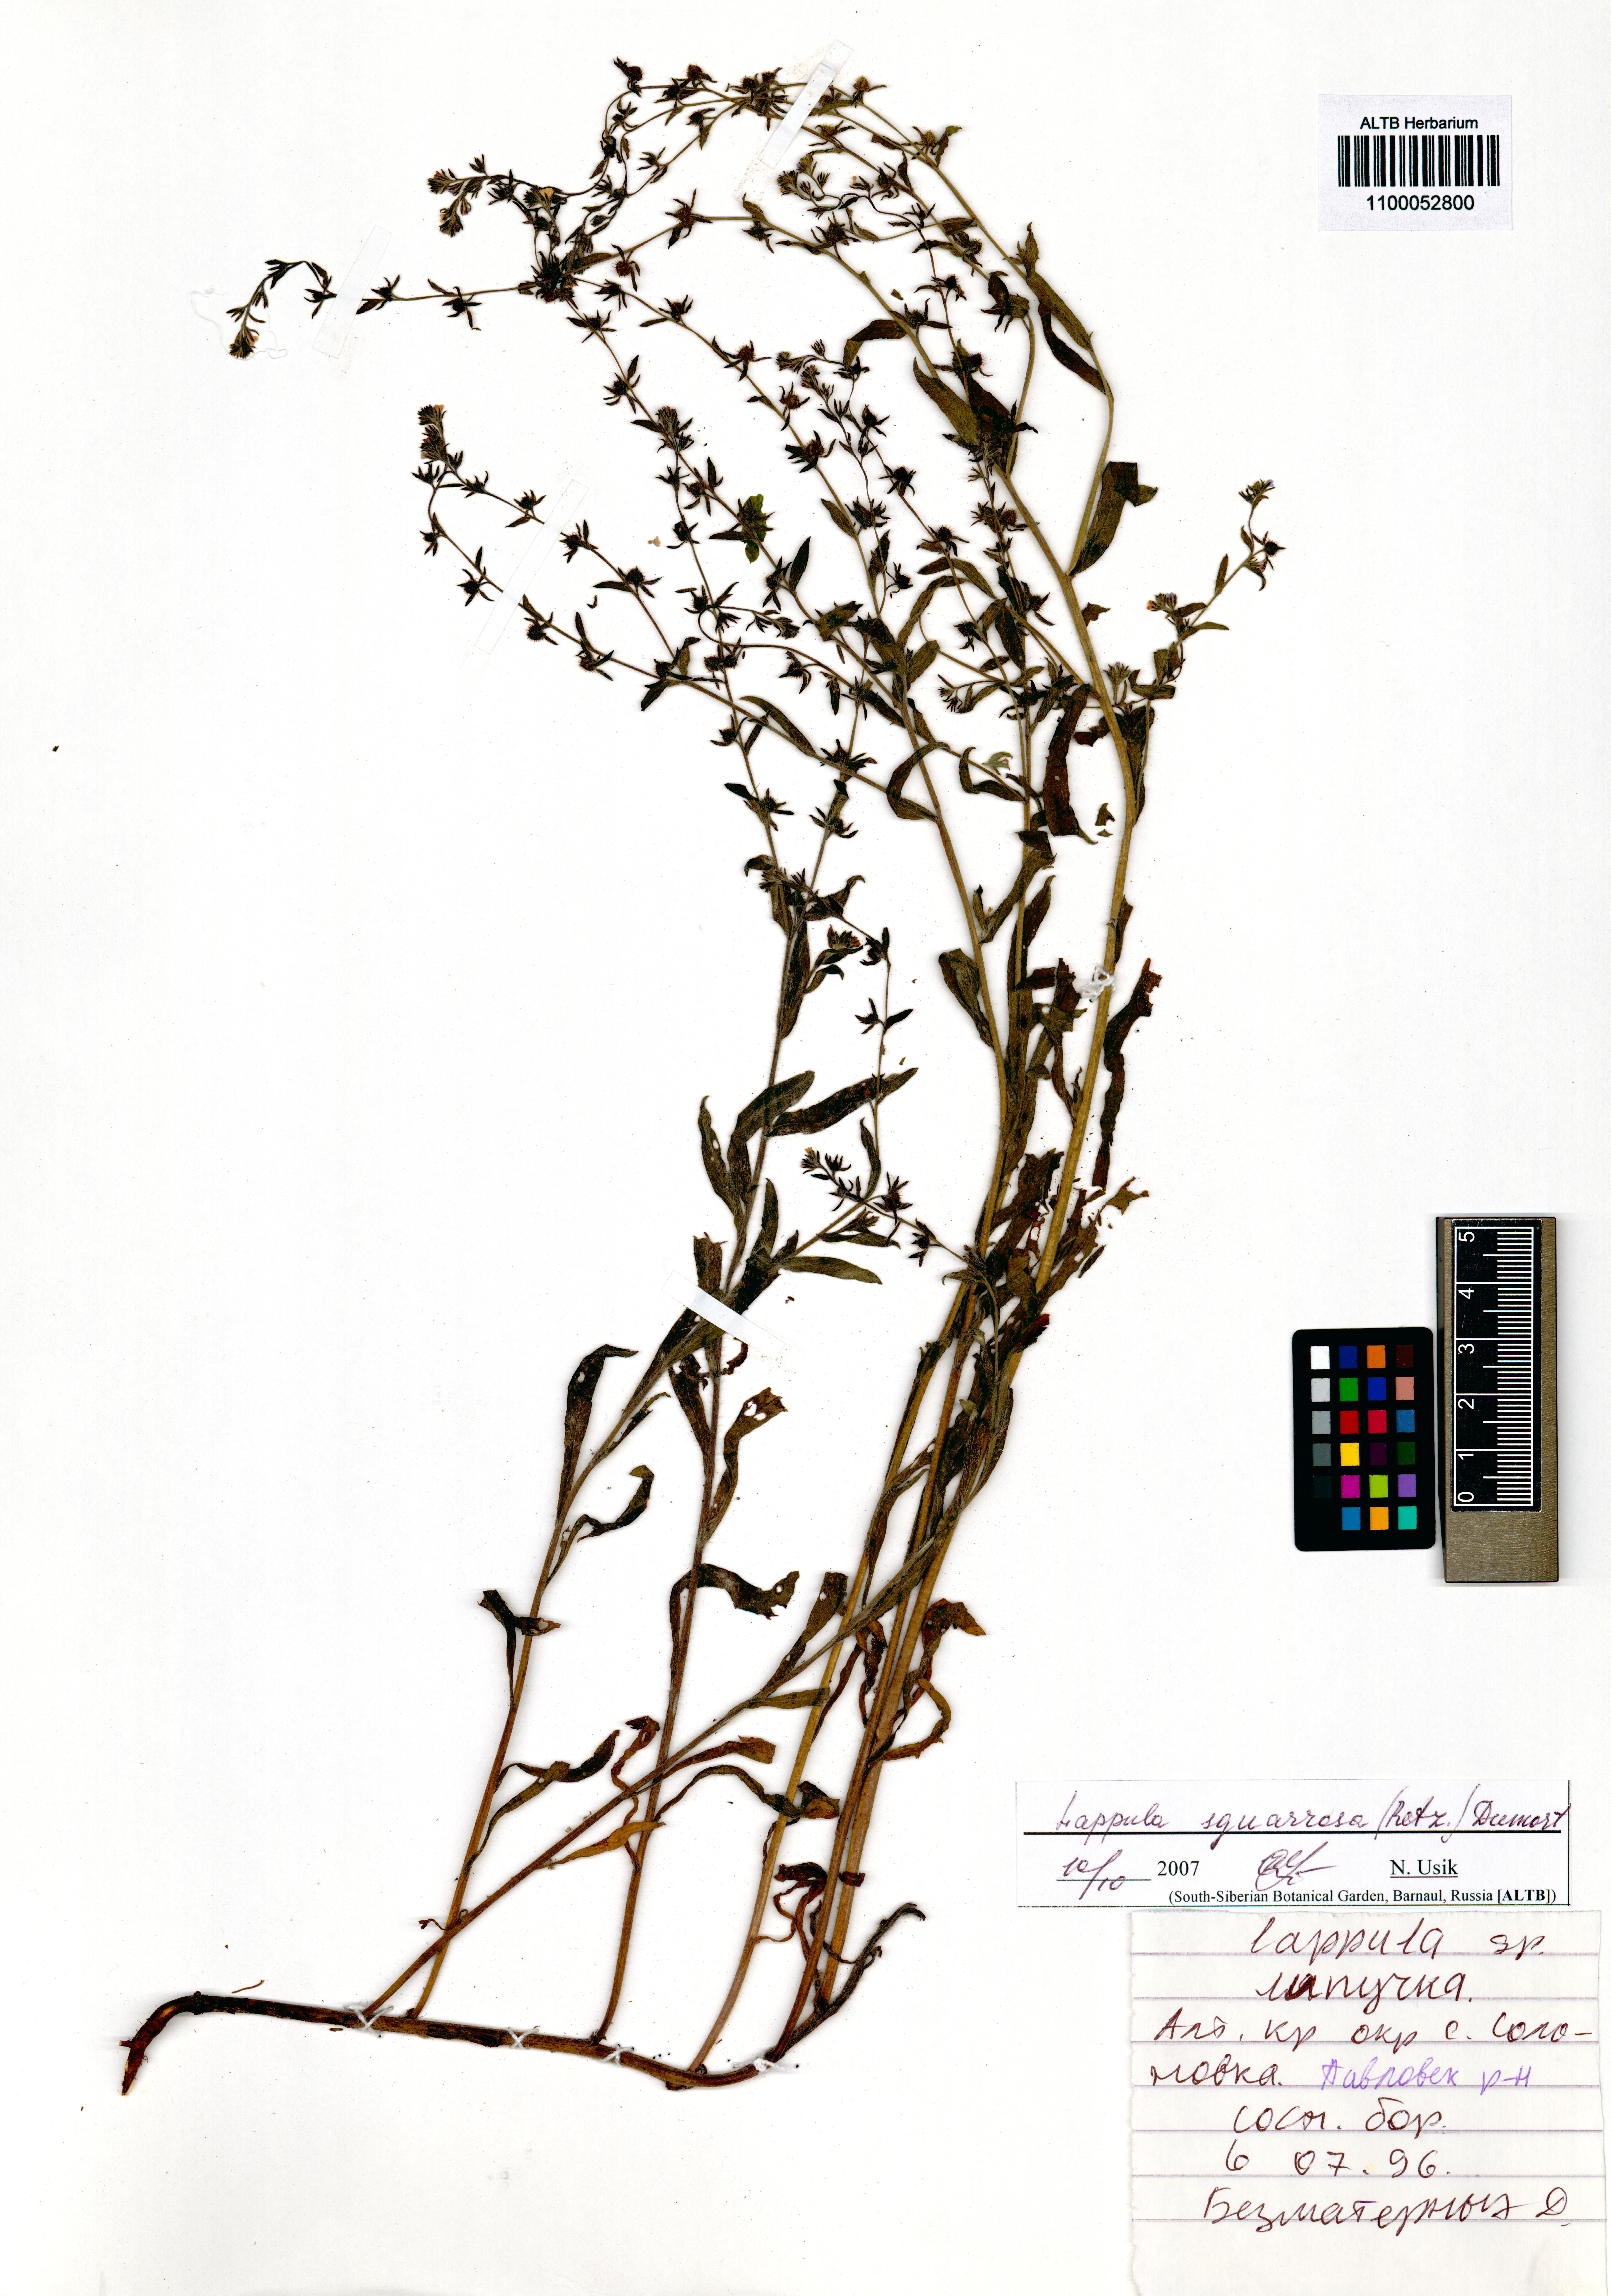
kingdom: Plantae
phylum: Tracheophyta
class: Magnoliopsida
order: Boraginales
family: Boraginaceae
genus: Lappula
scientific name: Lappula squarrosa
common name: European stickseed
